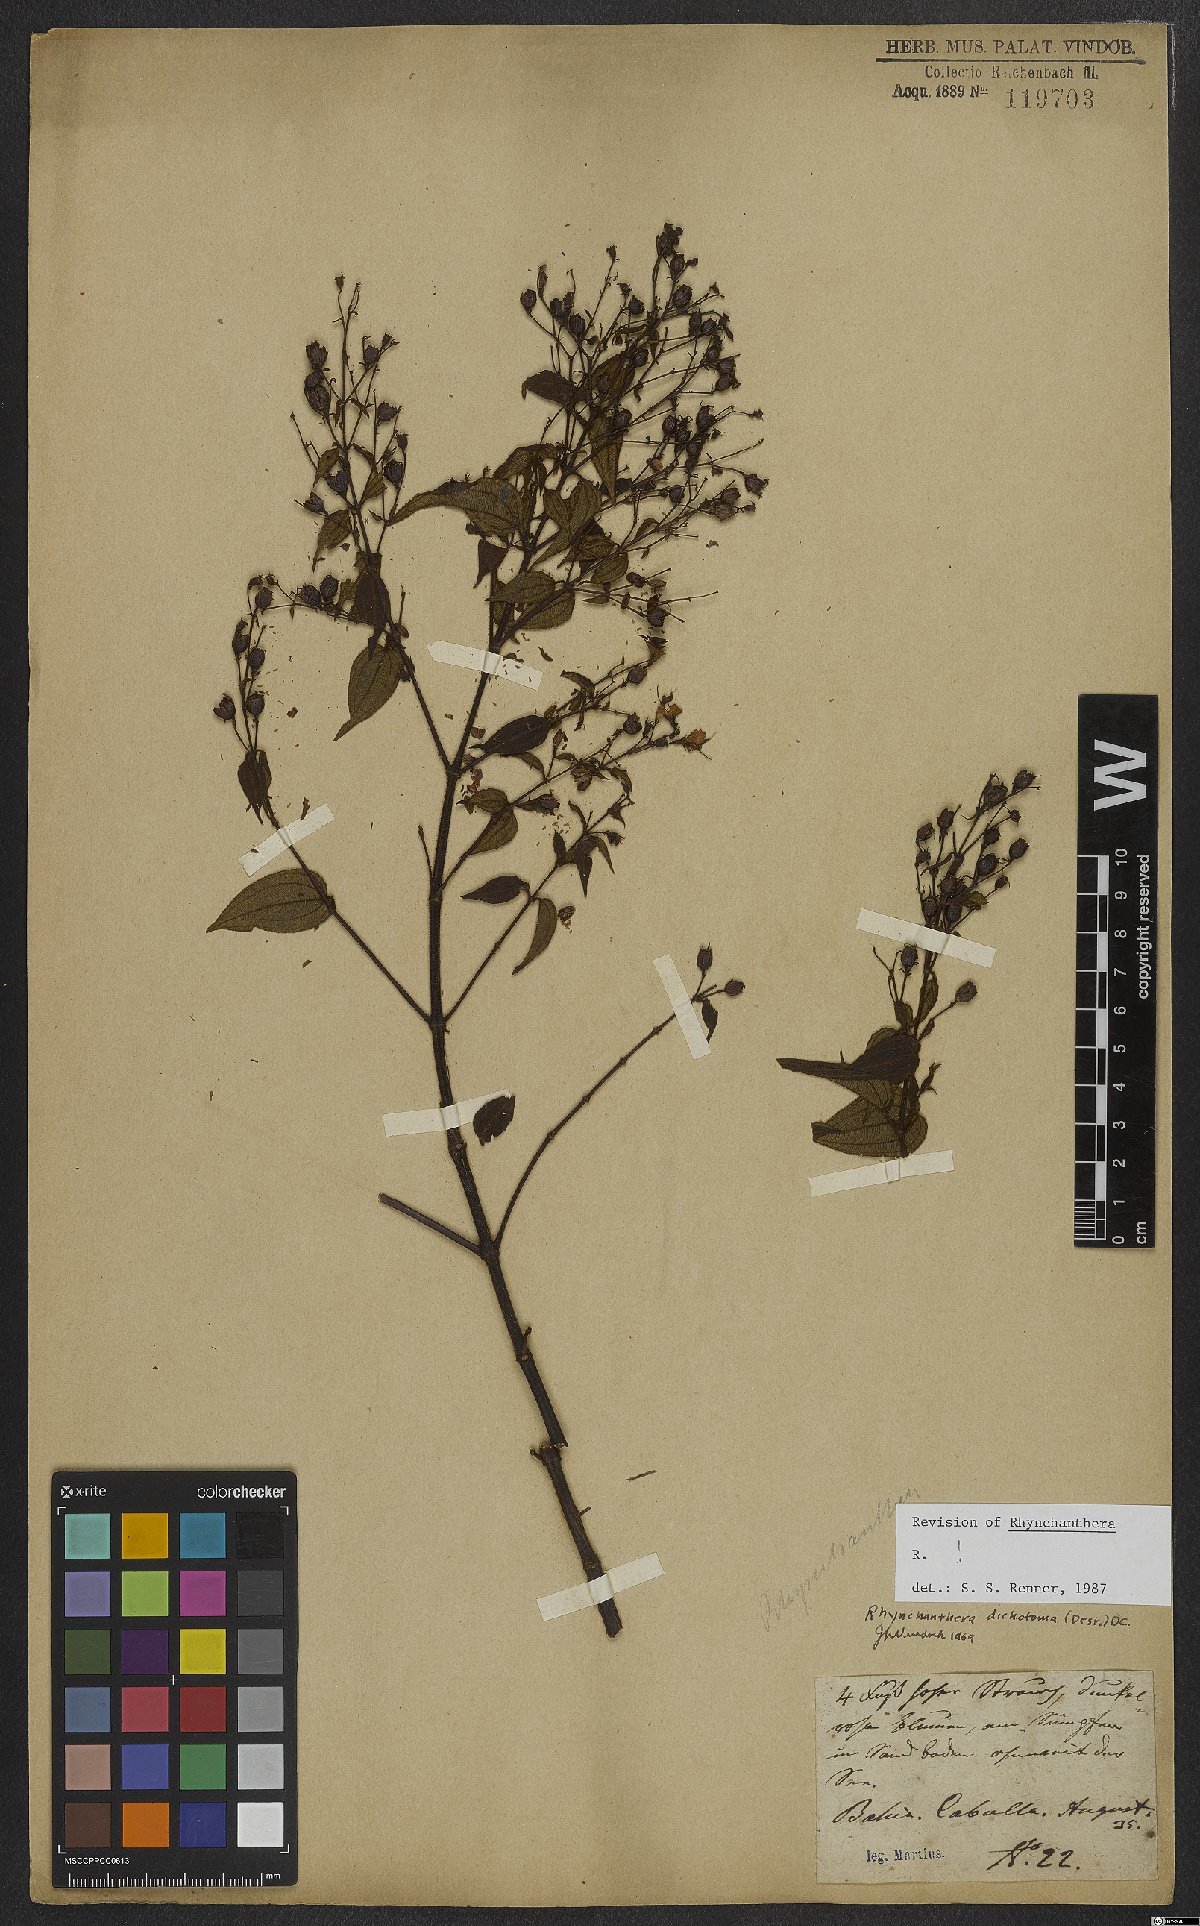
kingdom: Plantae
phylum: Tracheophyta
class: Magnoliopsida
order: Myrtales
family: Melastomataceae
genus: Rhynchanthera
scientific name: Rhynchanthera dichotoma
